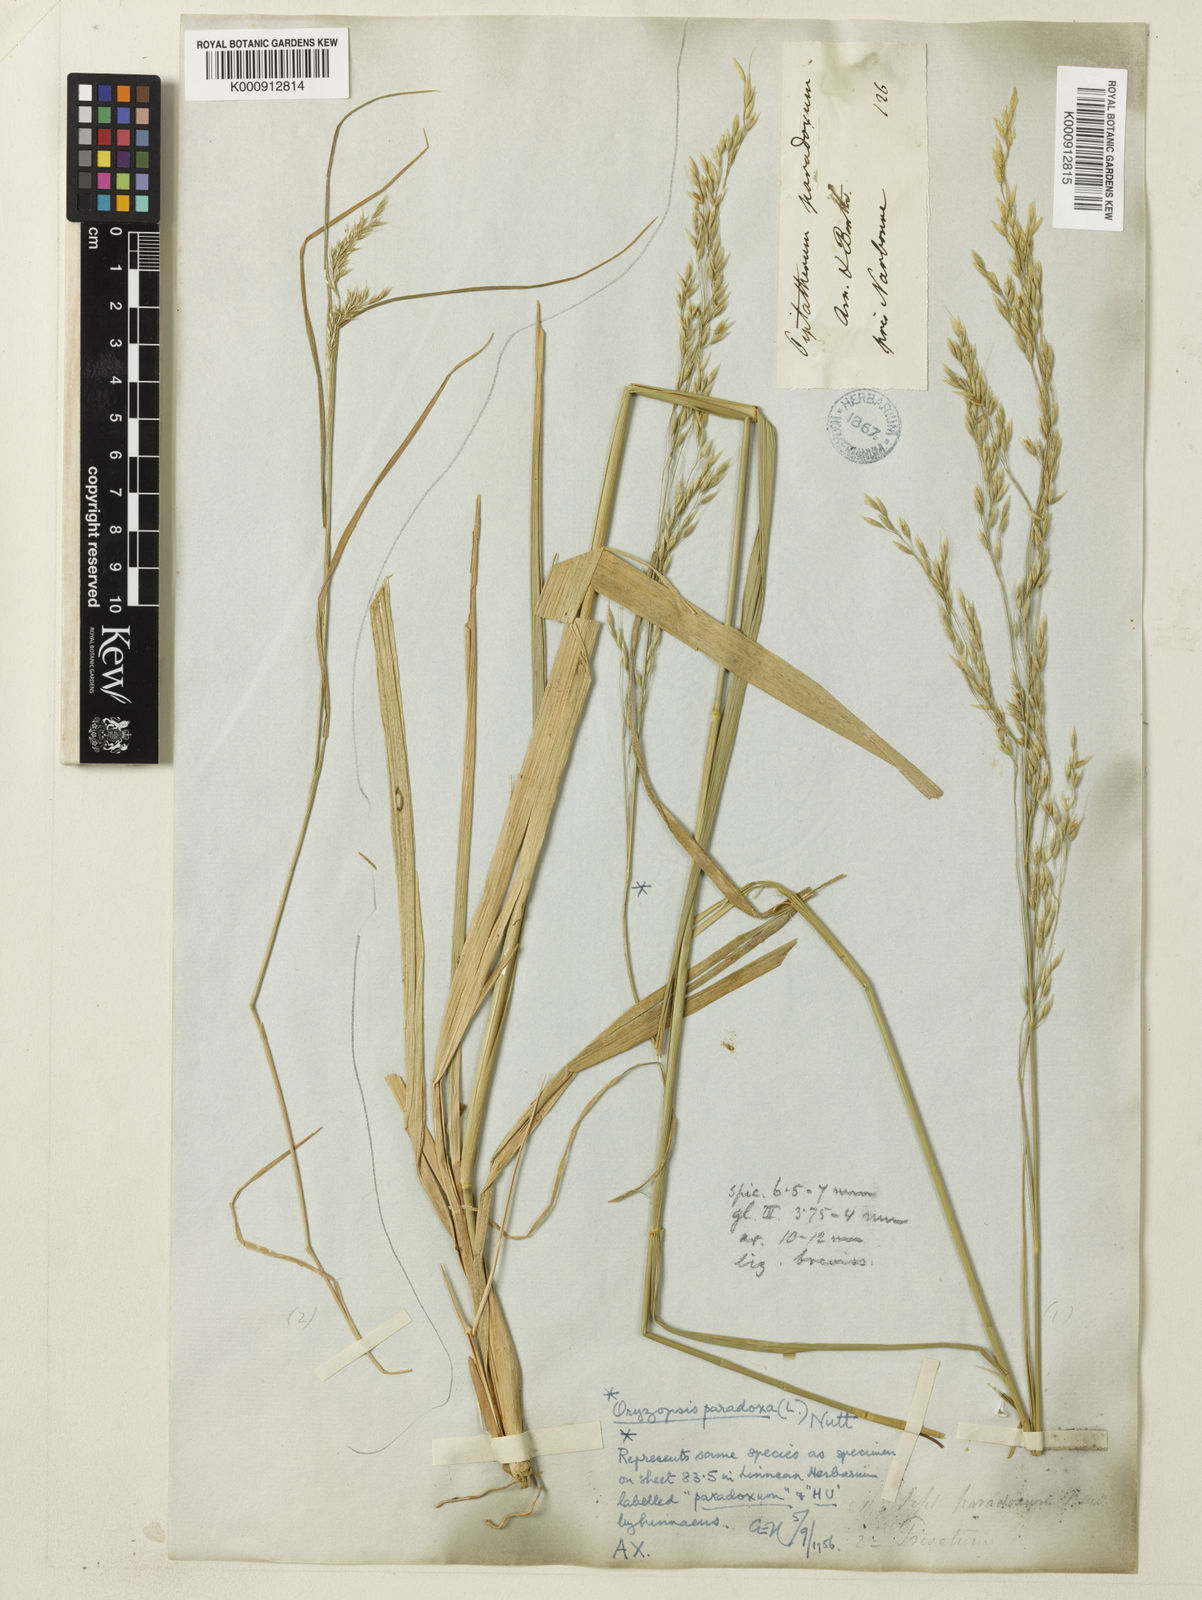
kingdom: Plantae
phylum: Tracheophyta
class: Liliopsida
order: Poales
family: Poaceae
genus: Achnatherum
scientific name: Achnatherum paradoxum
